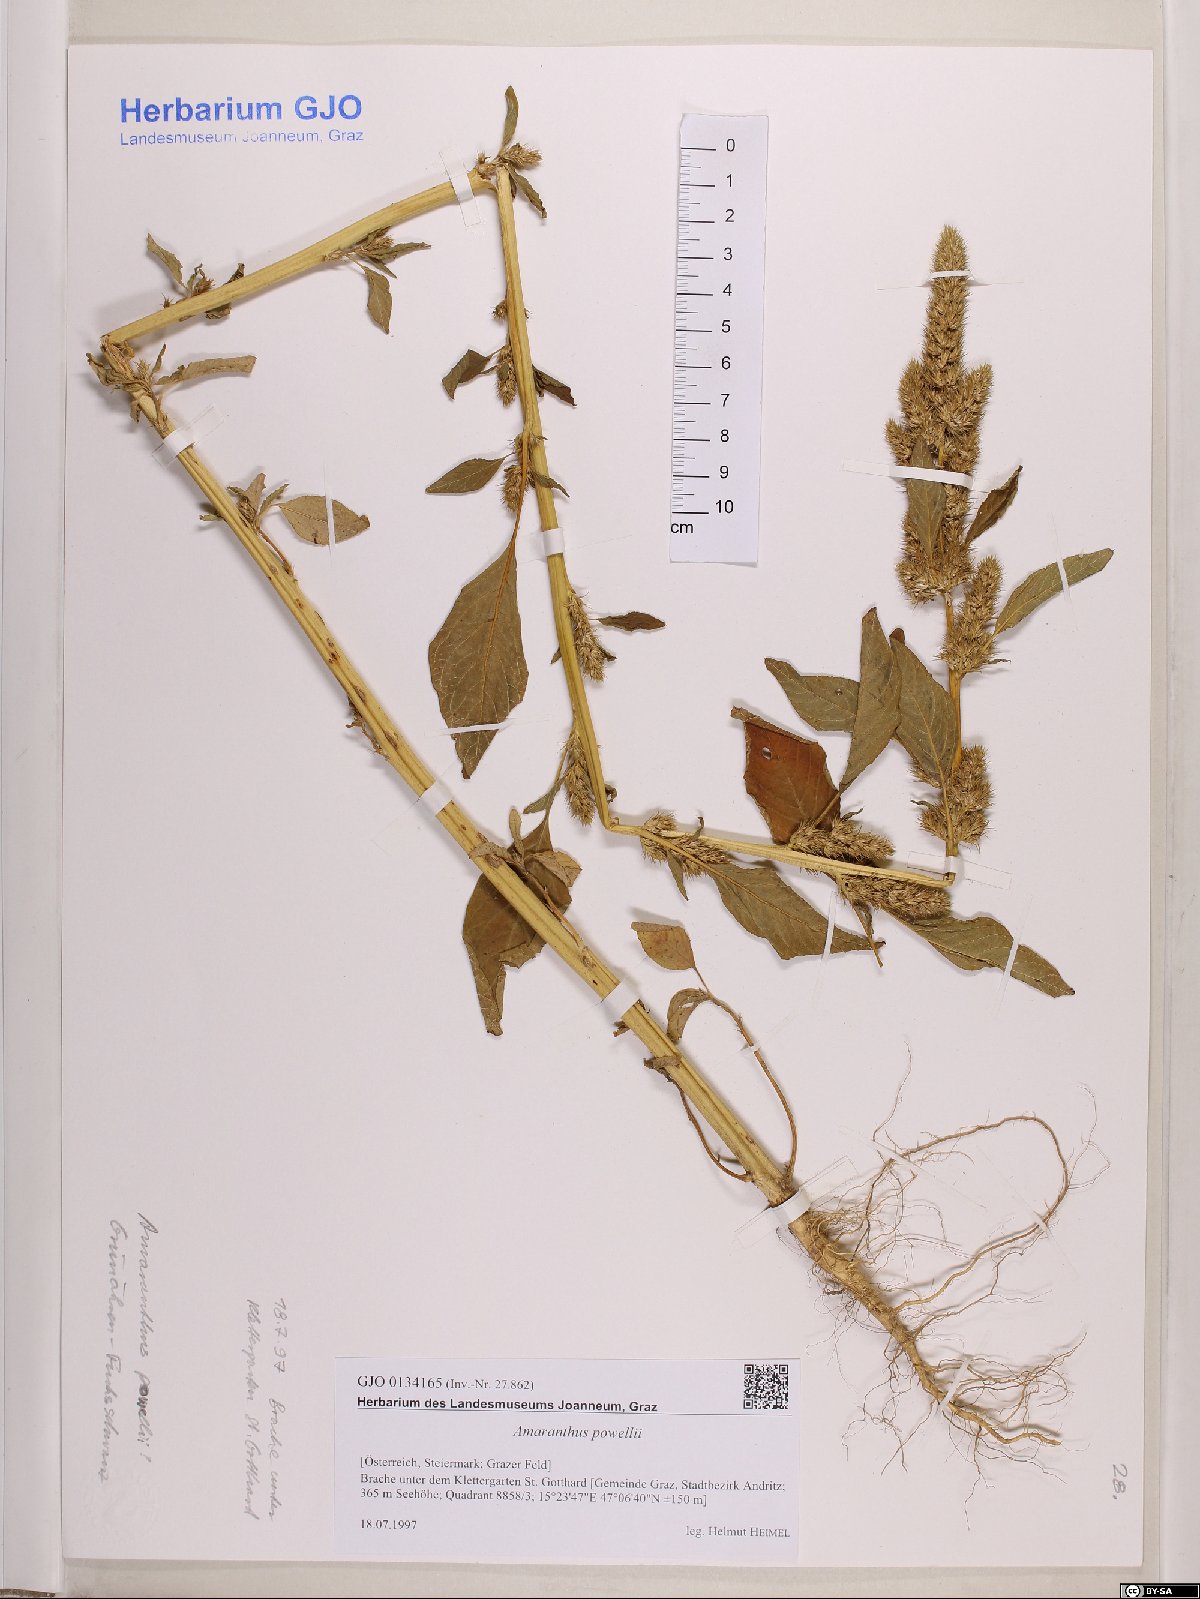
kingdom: Plantae
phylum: Tracheophyta
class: Magnoliopsida
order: Caryophyllales
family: Amaranthaceae
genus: Amaranthus
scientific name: Amaranthus powellii
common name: Powell's amaranth
